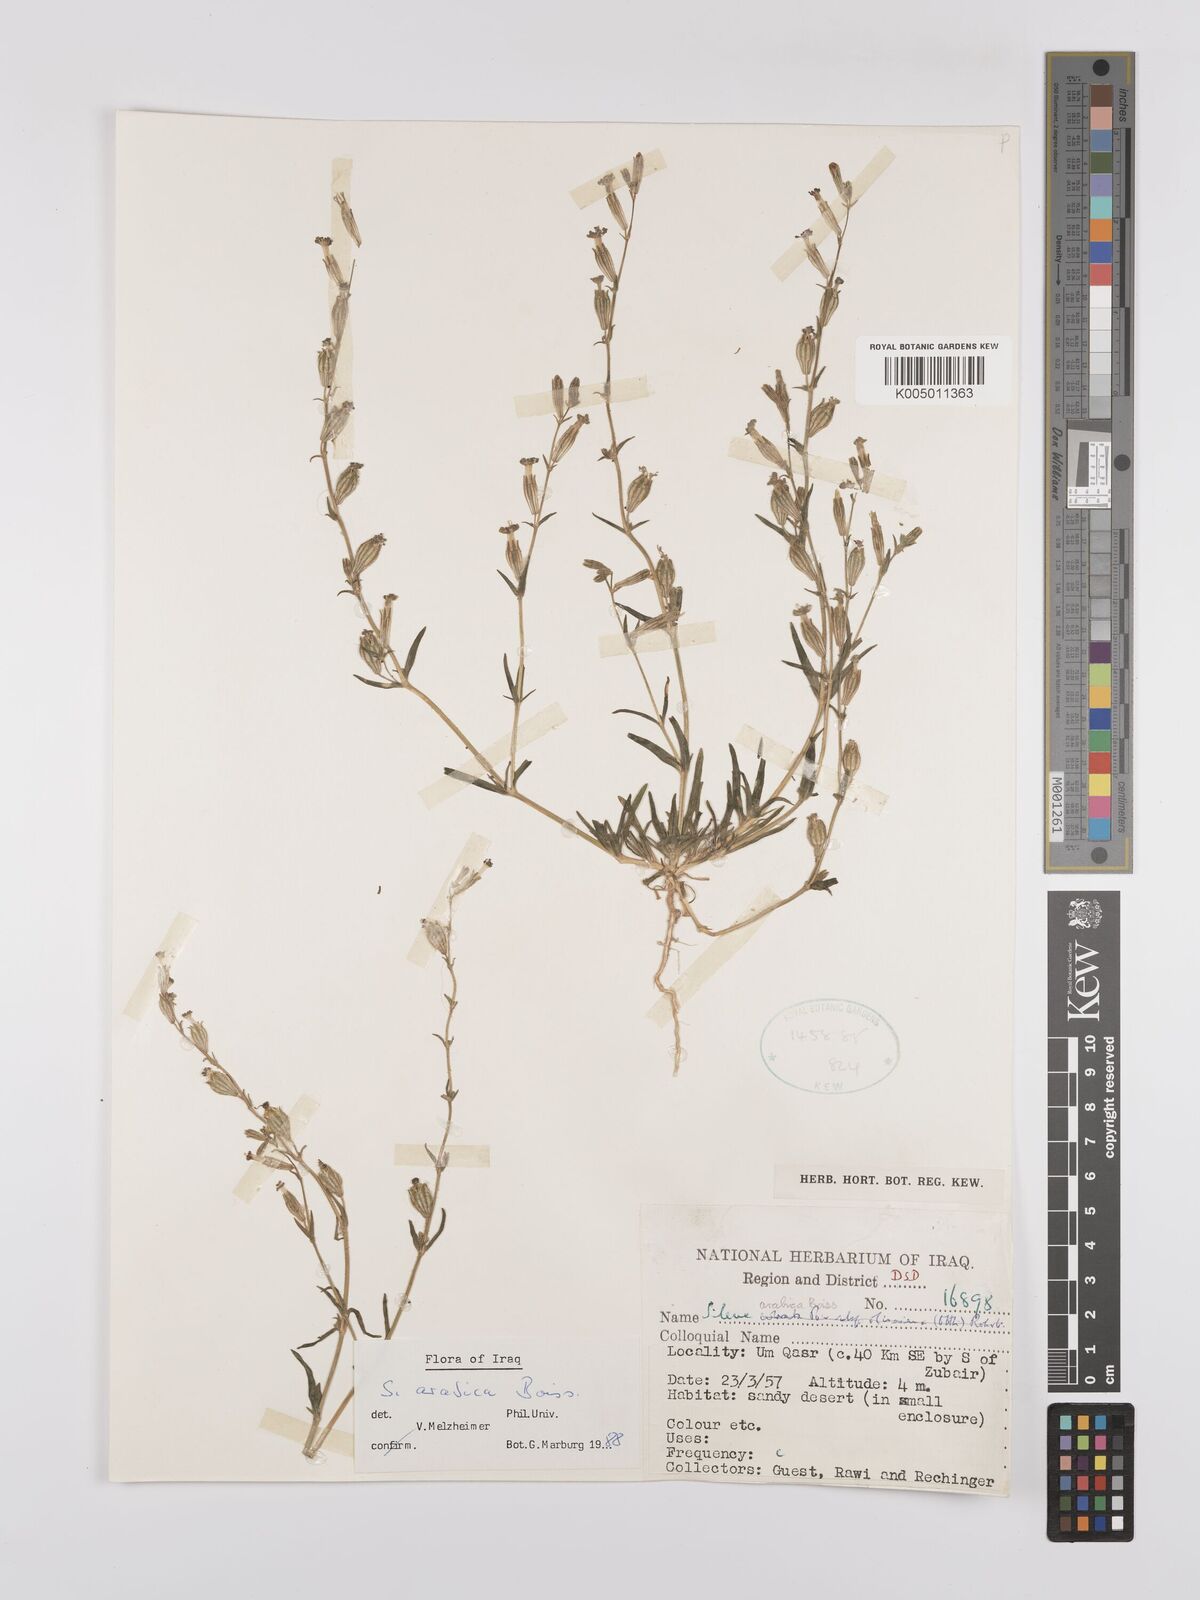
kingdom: Plantae
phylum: Tracheophyta
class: Magnoliopsida
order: Caryophyllales
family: Caryophyllaceae
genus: Silene
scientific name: Silene arabica
